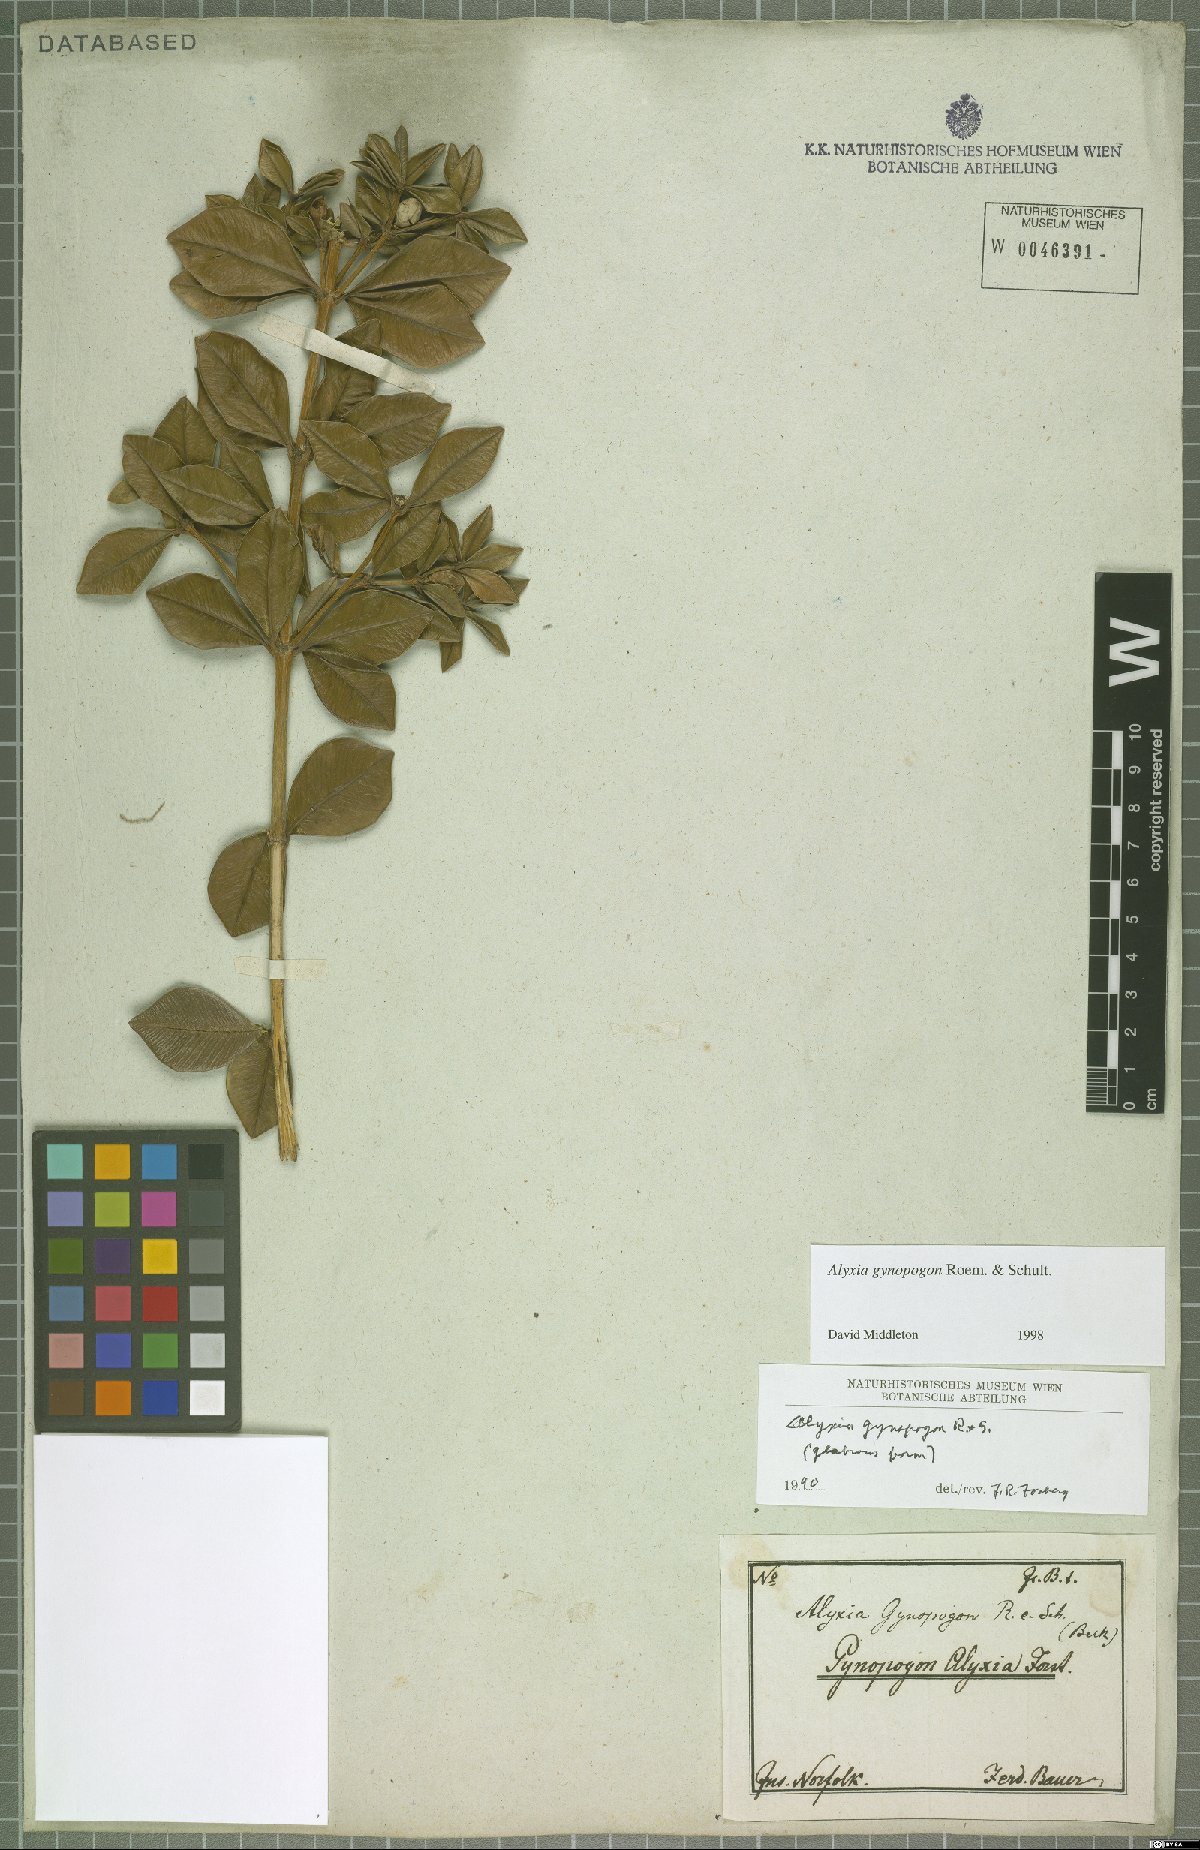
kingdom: Plantae
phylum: Tracheophyta
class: Magnoliopsida
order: Gentianales
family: Apocynaceae
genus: Alyxia
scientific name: Alyxia gynopogon
